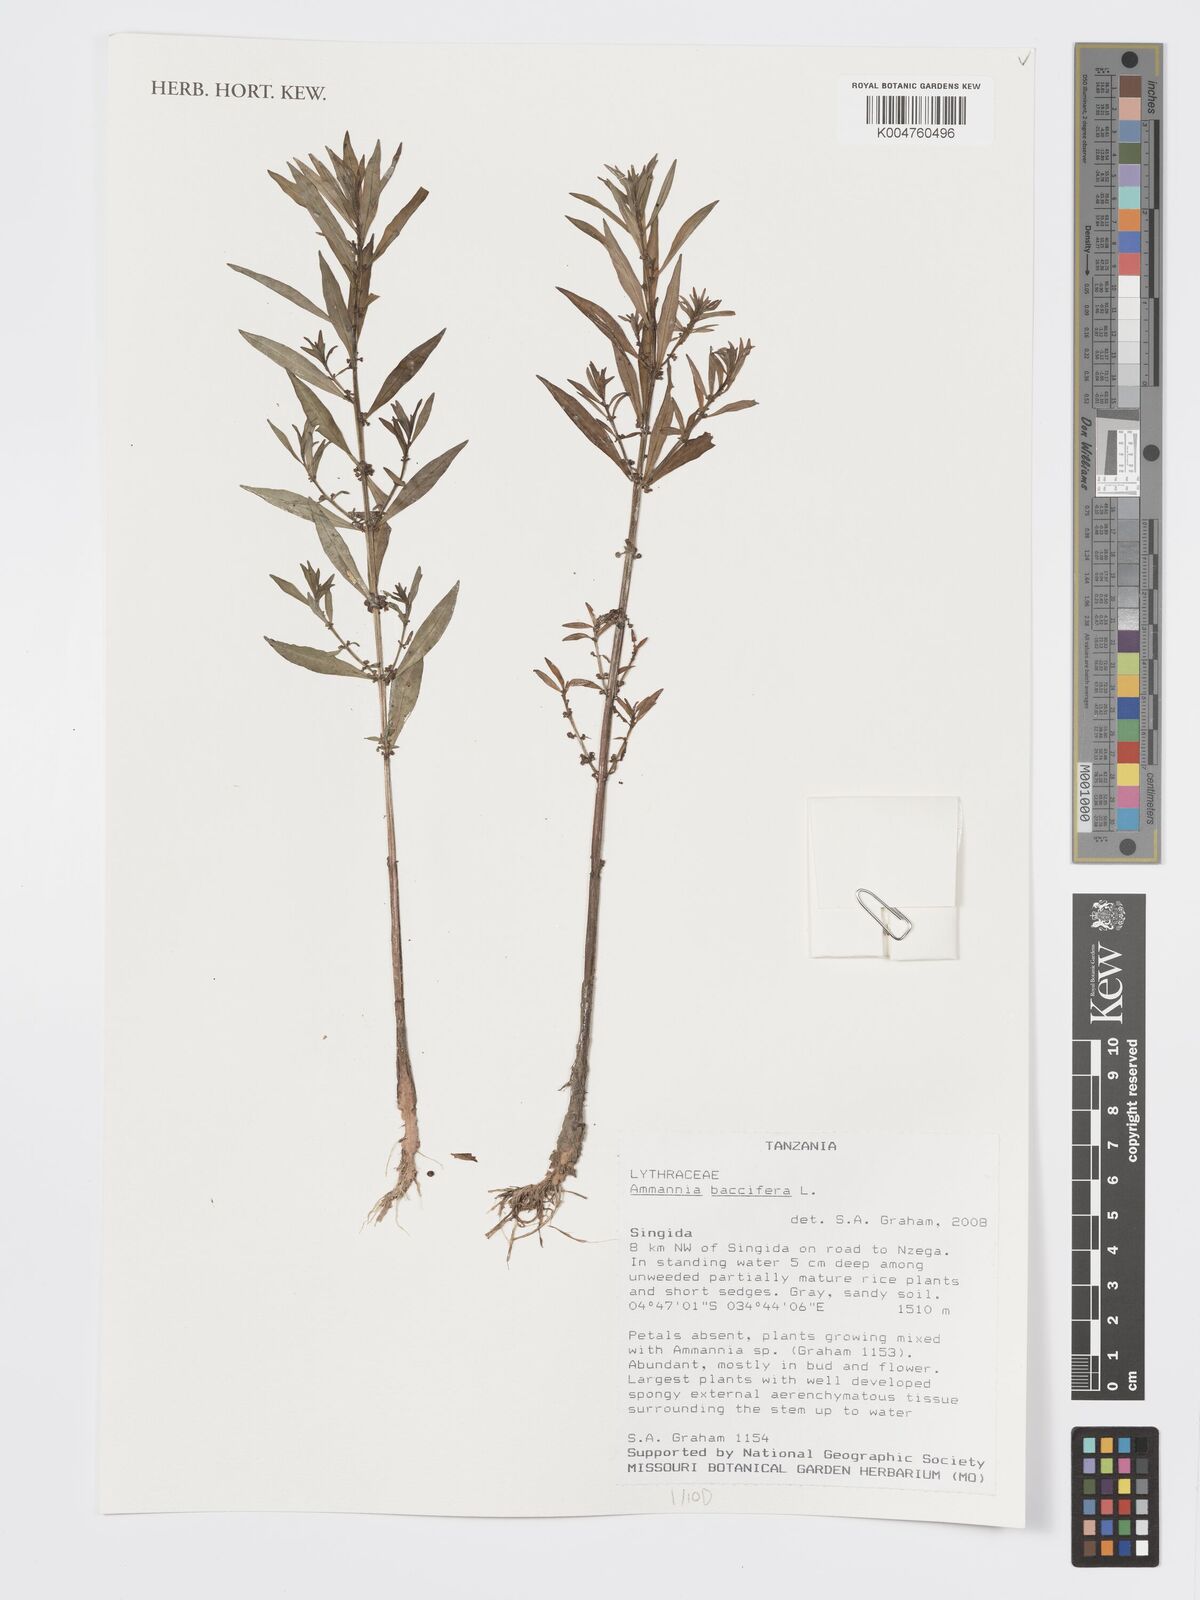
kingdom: Plantae
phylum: Tracheophyta
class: Magnoliopsida
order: Myrtales
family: Lythraceae
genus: Ammannia
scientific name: Ammannia
